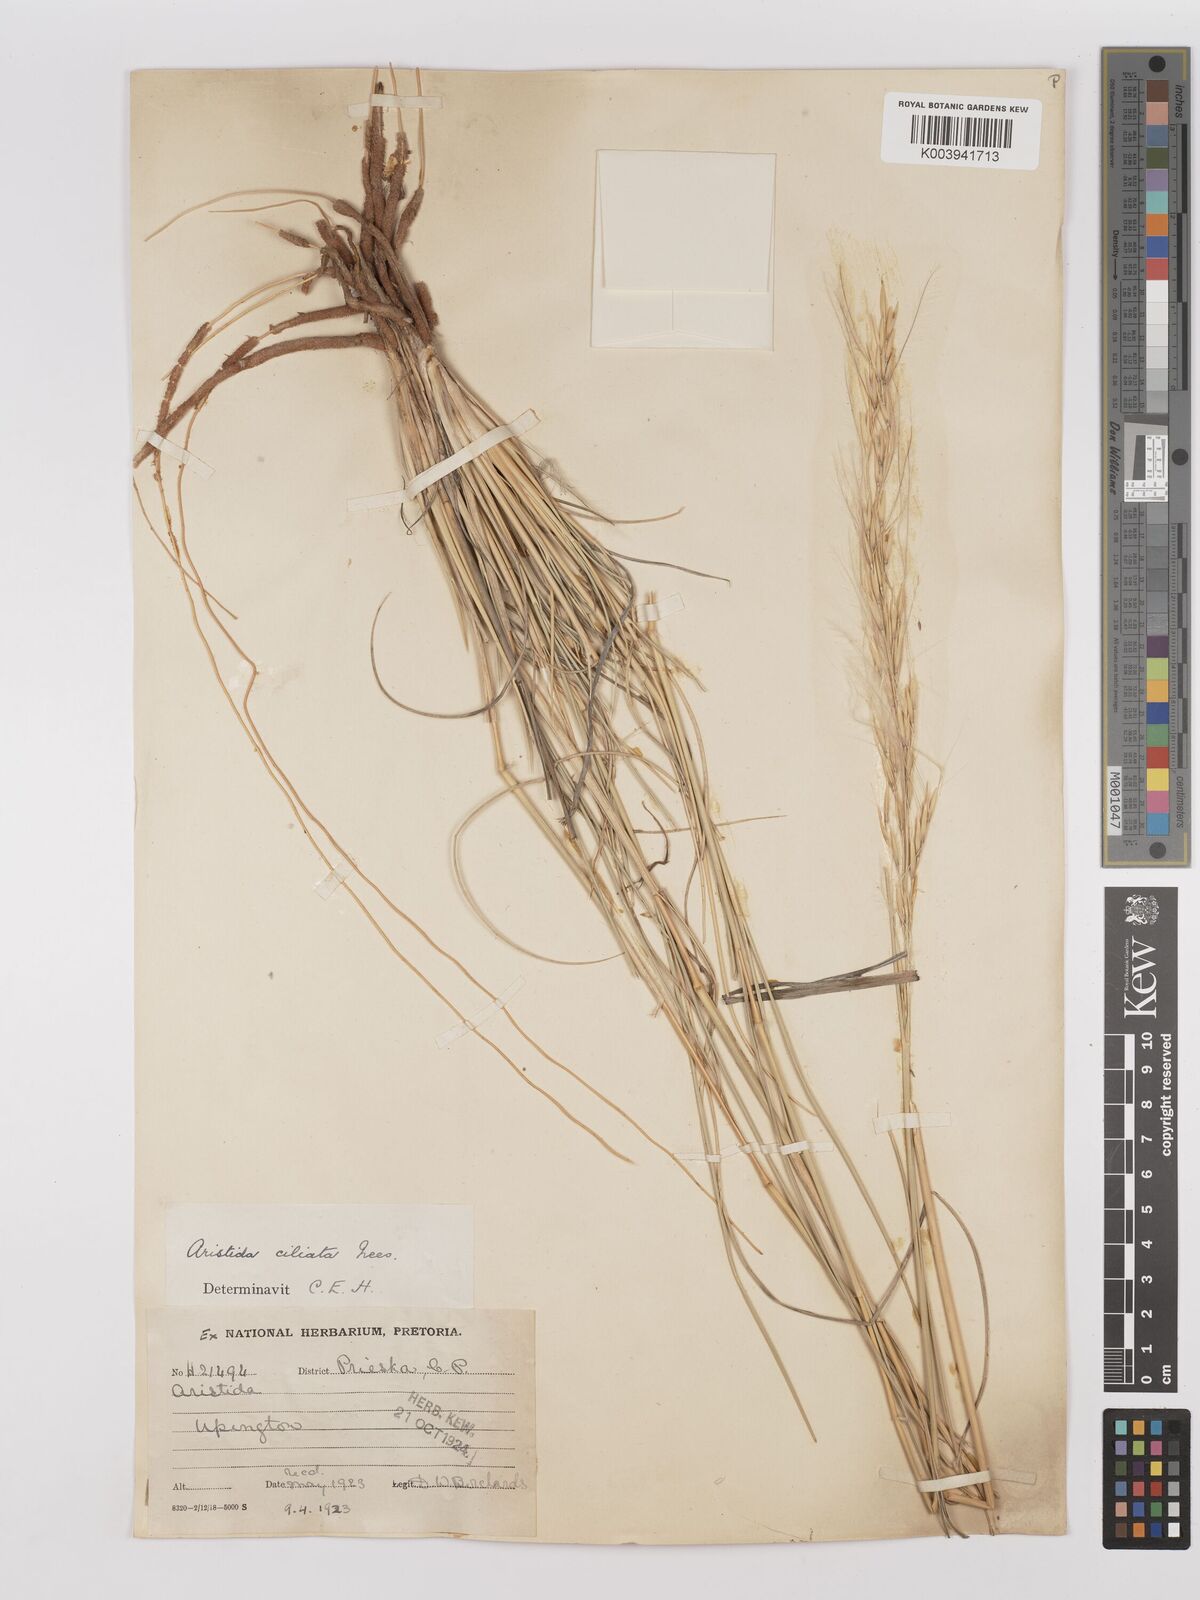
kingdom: Plantae
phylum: Tracheophyta
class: Liliopsida
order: Poales
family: Poaceae
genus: Stipagrostis
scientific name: Stipagrostis ciliata
